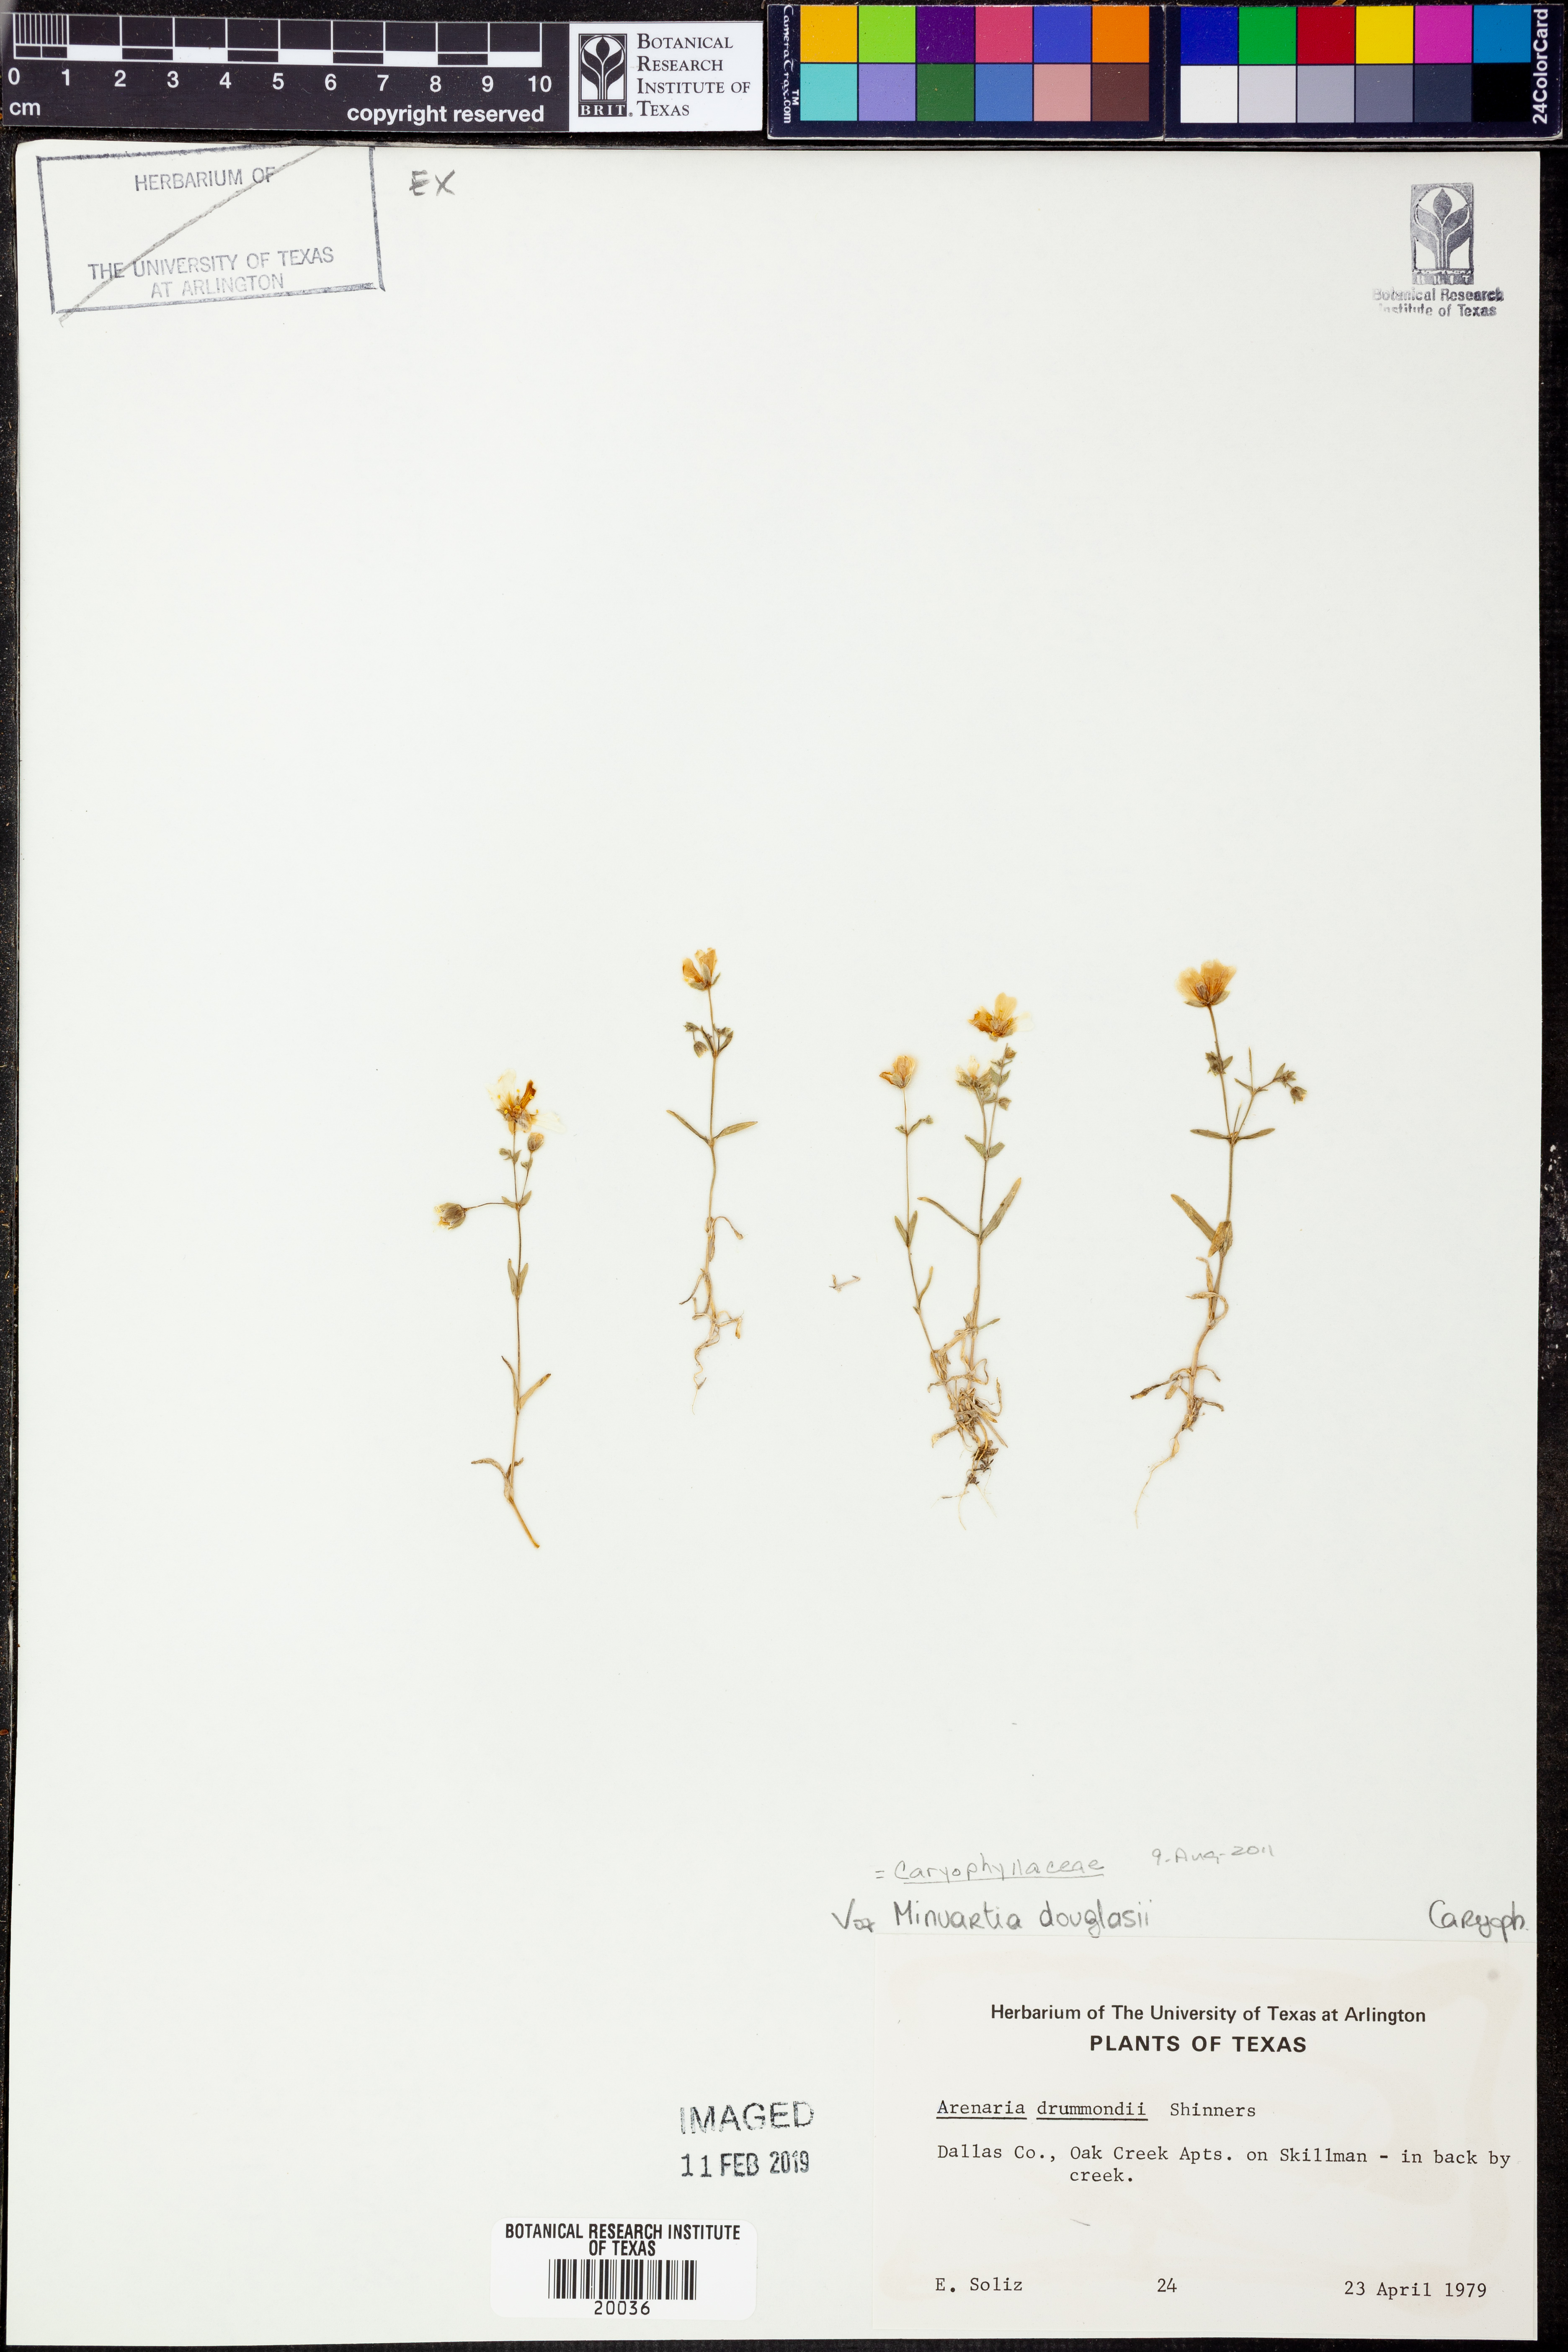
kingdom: Plantae
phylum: Tracheophyta
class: Magnoliopsida
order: Caryophyllales
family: Caryophyllaceae
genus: Sabulina
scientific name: Sabulina douglasii
